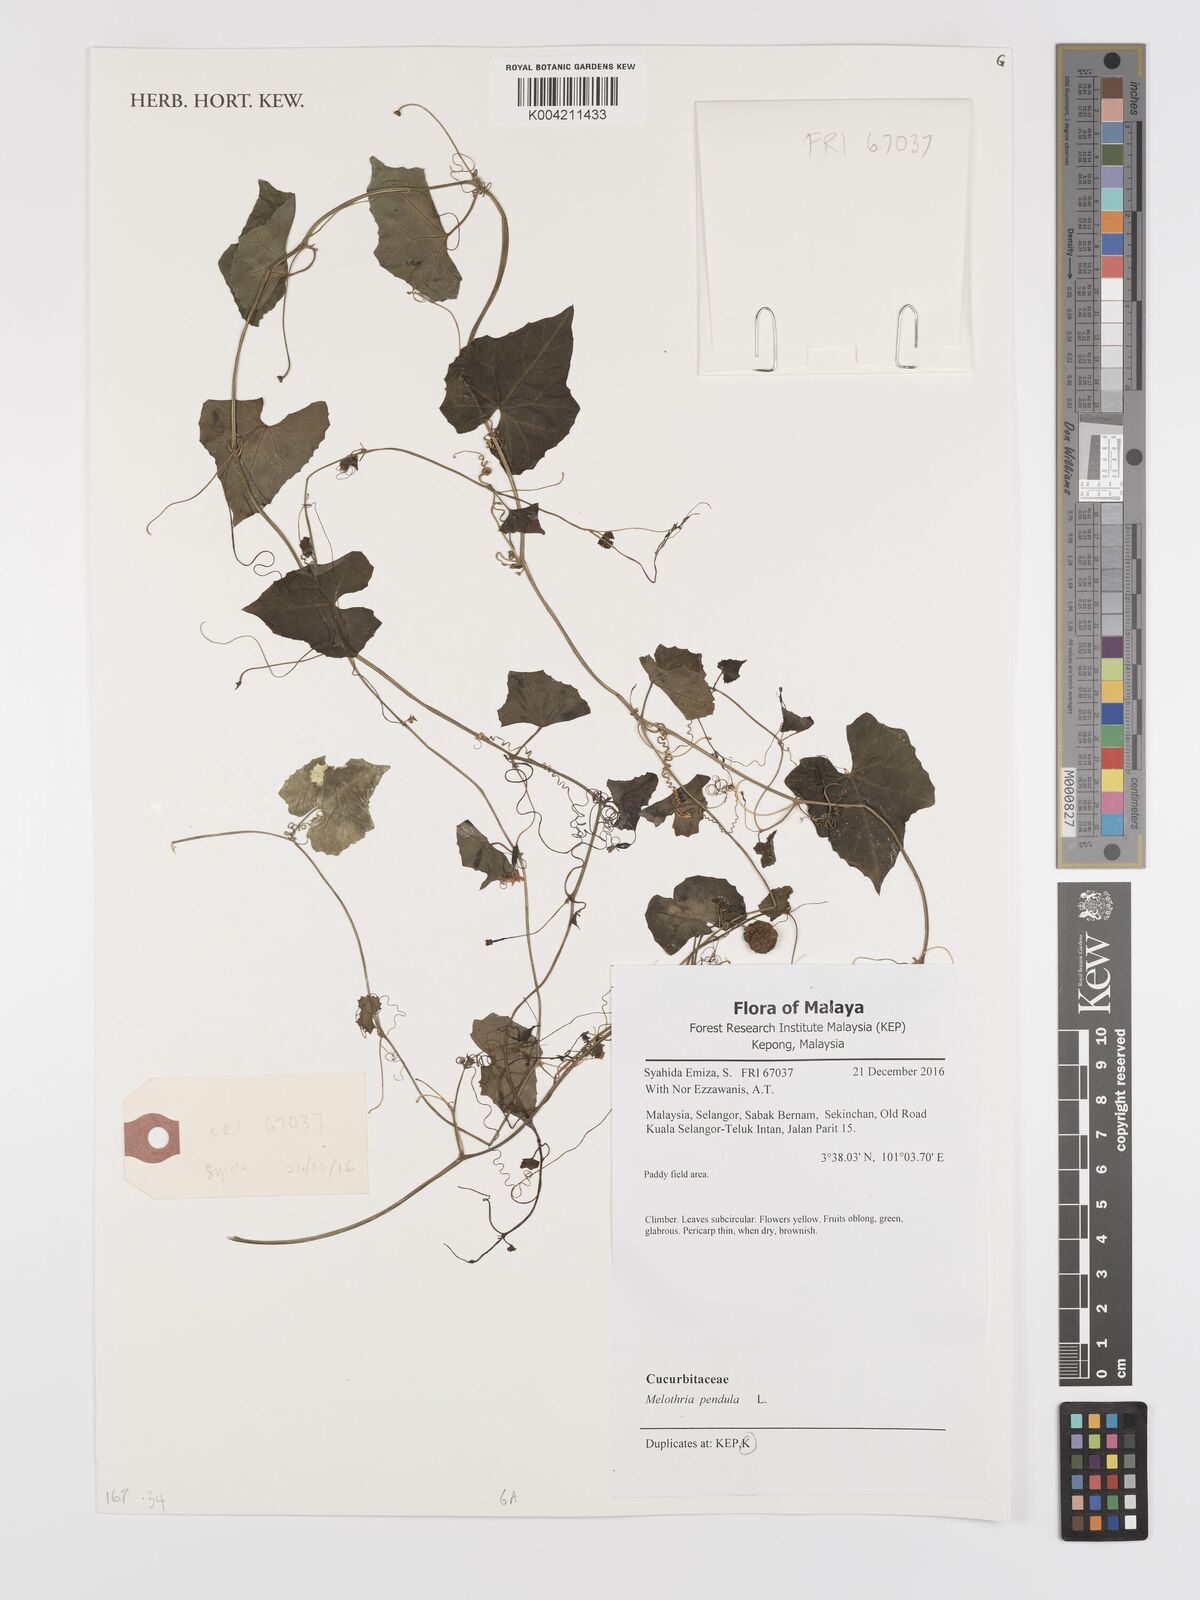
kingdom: Plantae
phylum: Tracheophyta
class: Magnoliopsida
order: Cucurbitales
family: Cucurbitaceae
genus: Melothria
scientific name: Melothria pendula
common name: Creeping-cucumber
